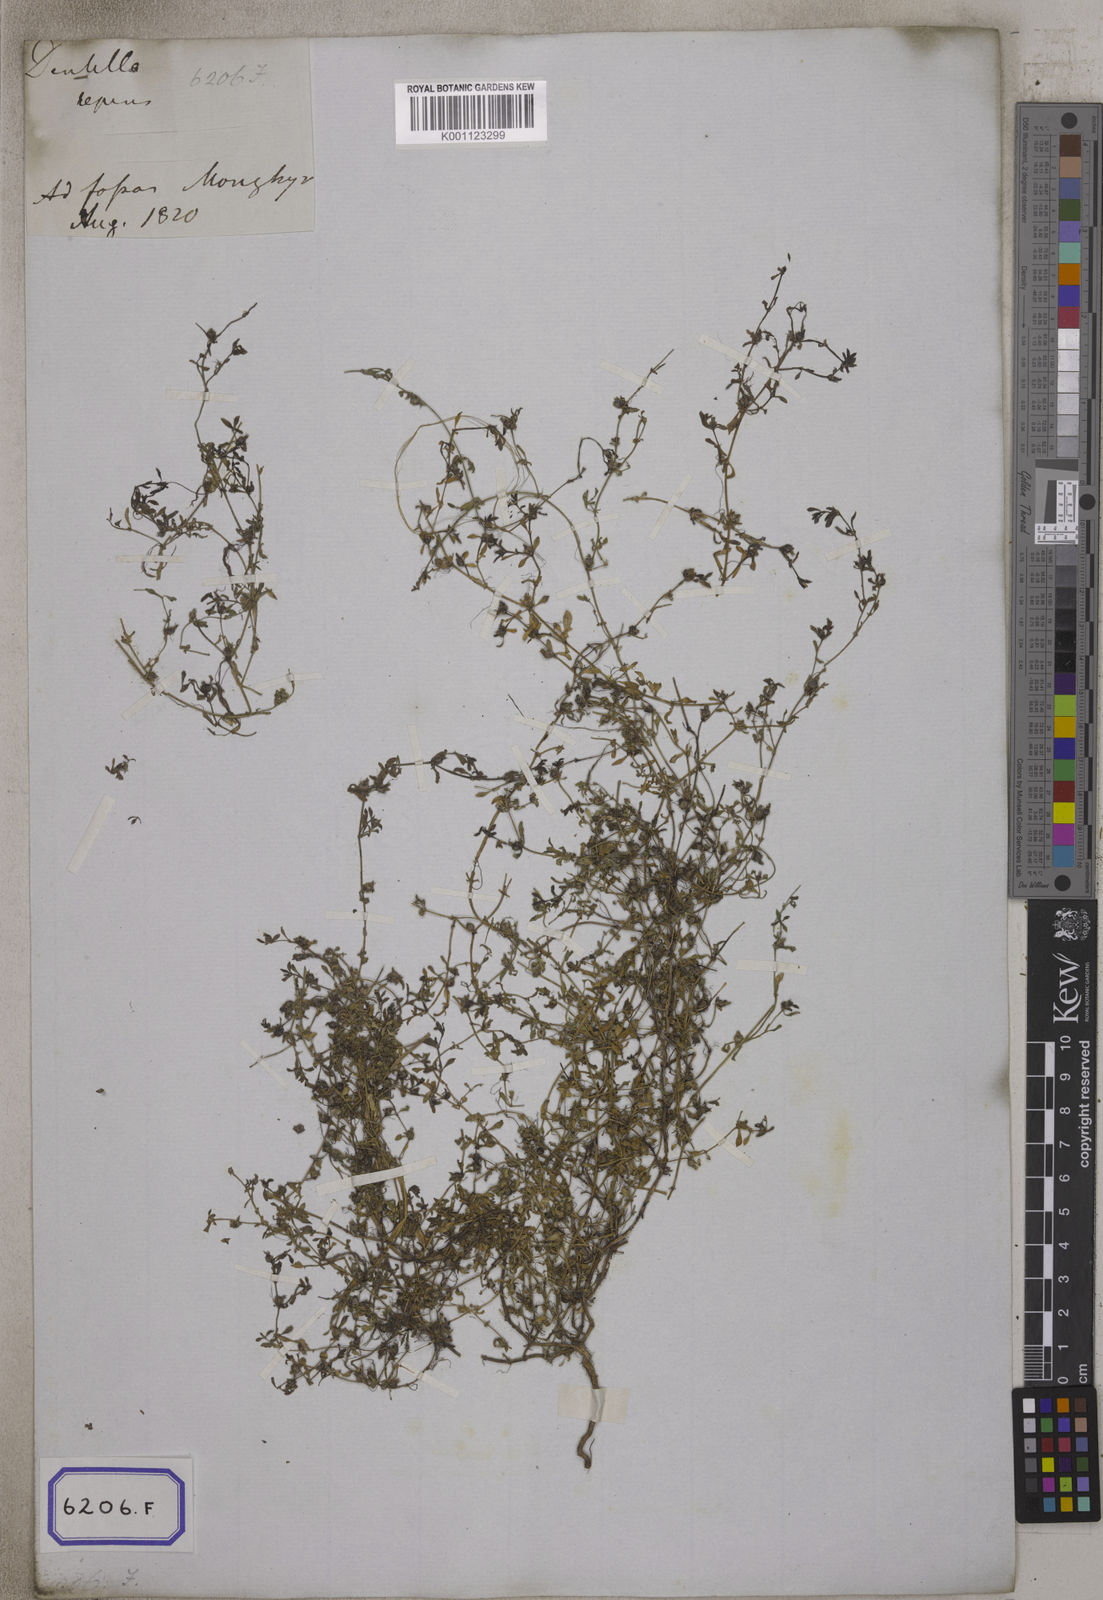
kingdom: Plantae
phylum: Tracheophyta
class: Magnoliopsida
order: Gentianales
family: Rubiaceae
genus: Dentella
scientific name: Dentella repens
